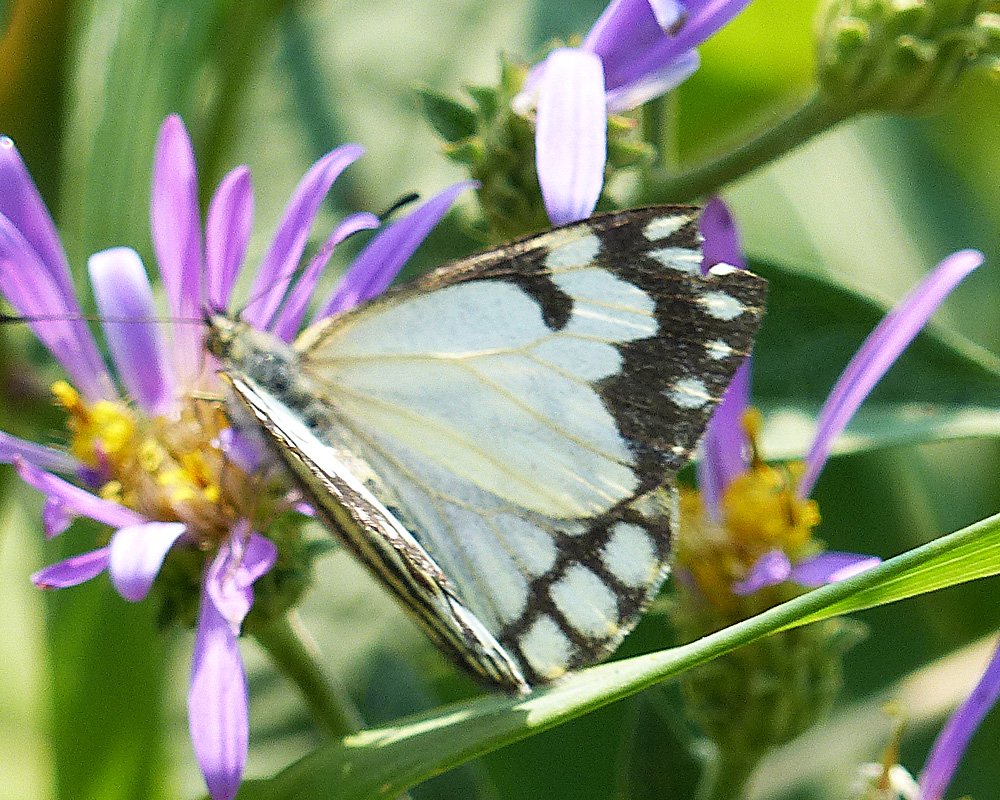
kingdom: Animalia
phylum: Arthropoda
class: Insecta
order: Lepidoptera
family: Pieridae
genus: Neophasia
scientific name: Neophasia menapia
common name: Pine White
